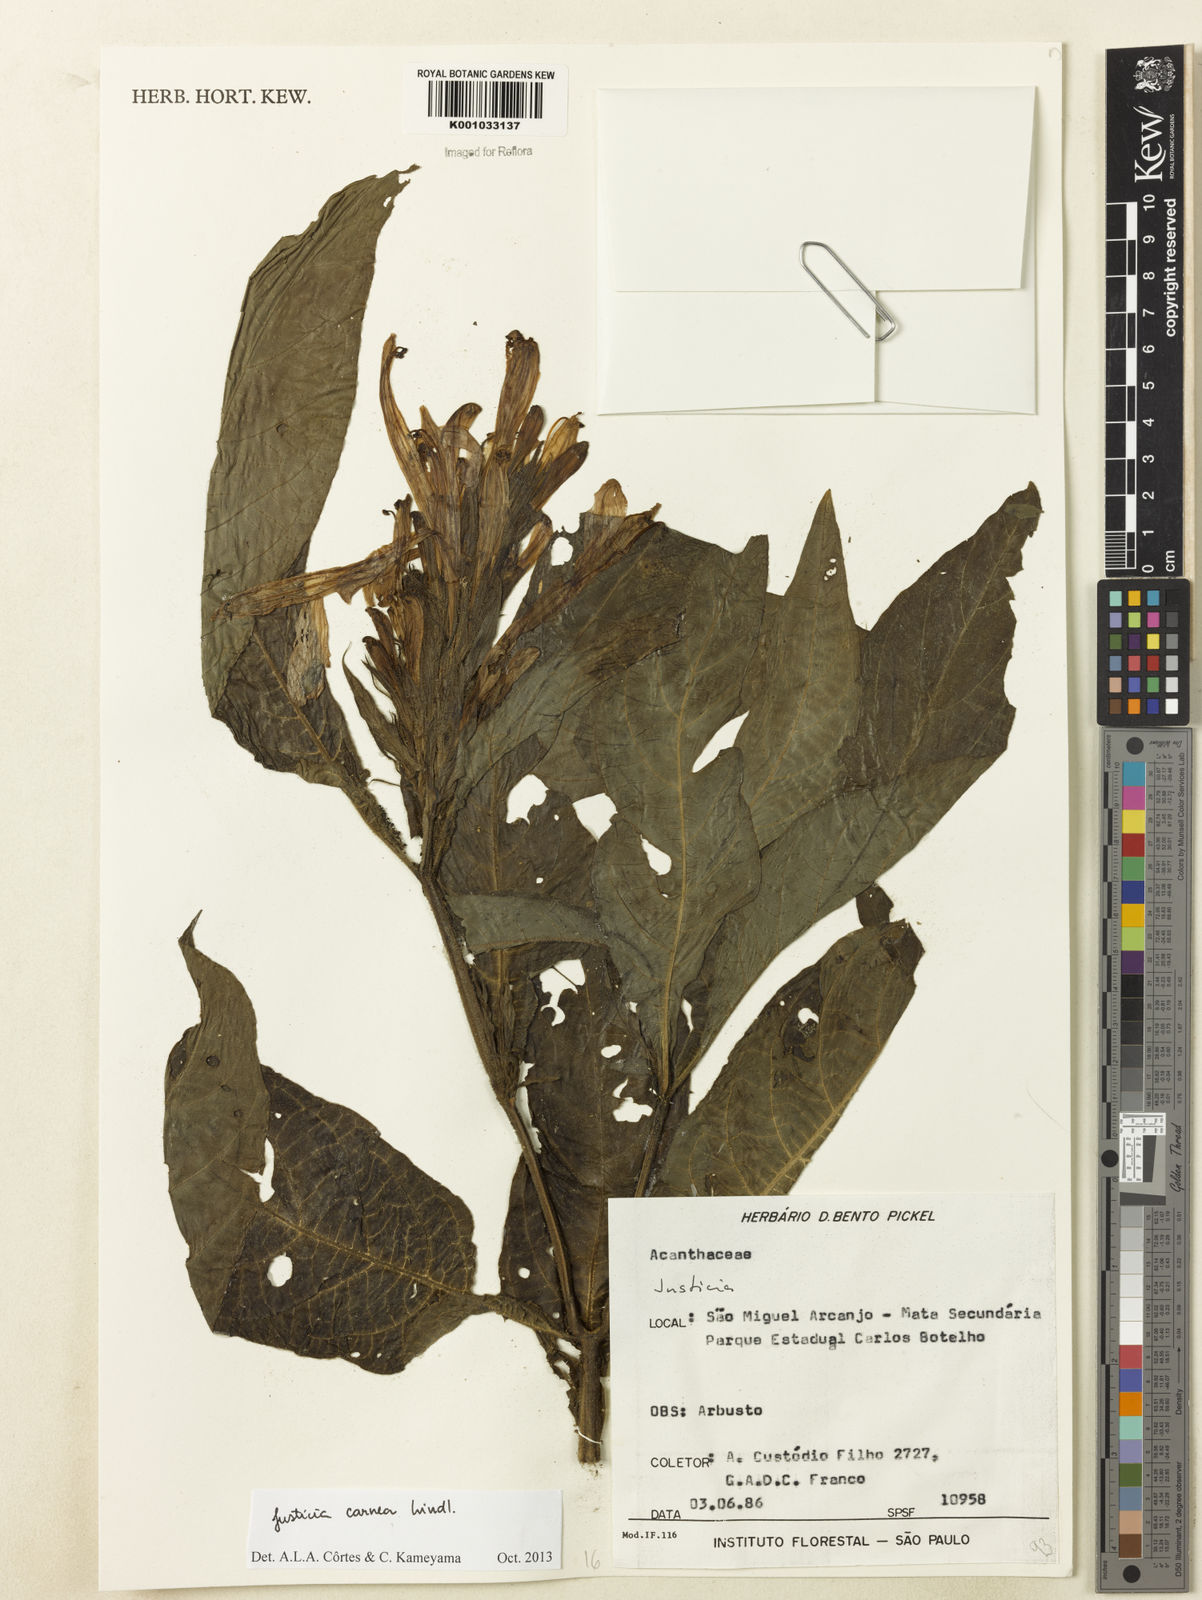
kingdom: Plantae
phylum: Tracheophyta
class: Magnoliopsida
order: Lamiales
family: Acanthaceae
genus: Justicia
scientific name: Justicia carnea
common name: Brazilian-plume
